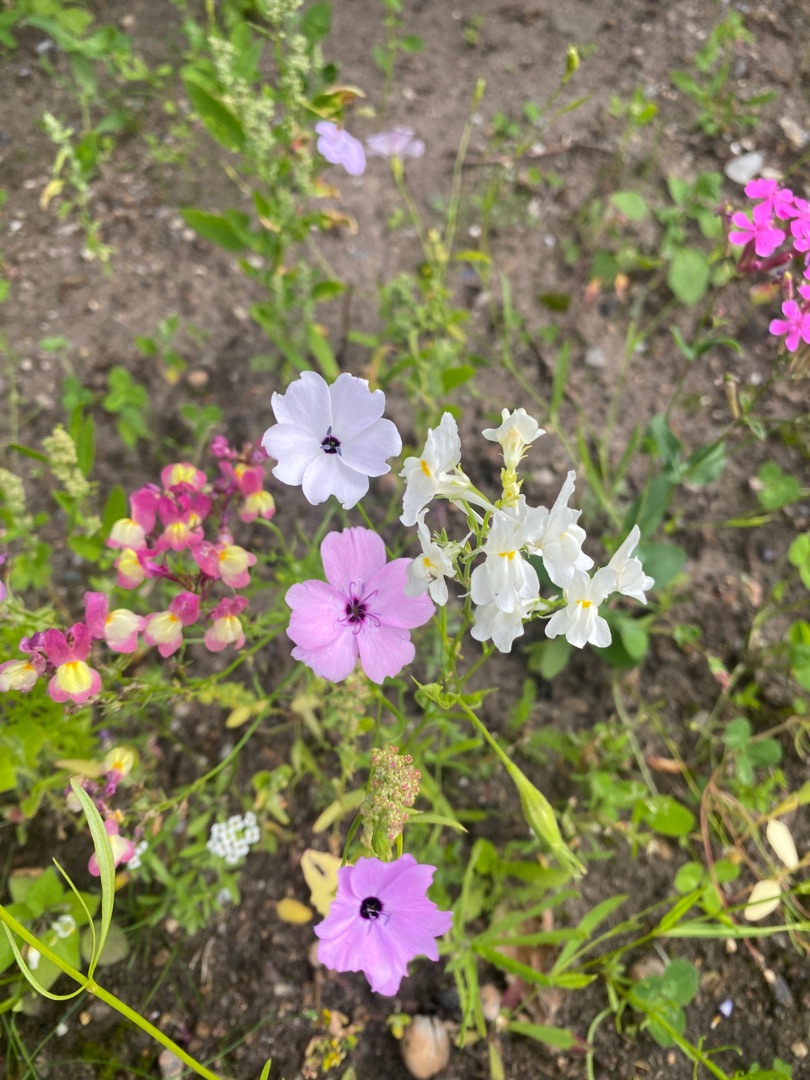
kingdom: Plantae
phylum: Tracheophyta
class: Magnoliopsida
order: Caryophyllales
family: Caryophyllaceae
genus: Eudianthe
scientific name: Eudianthe coeli-rosa
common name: Himmelrose
